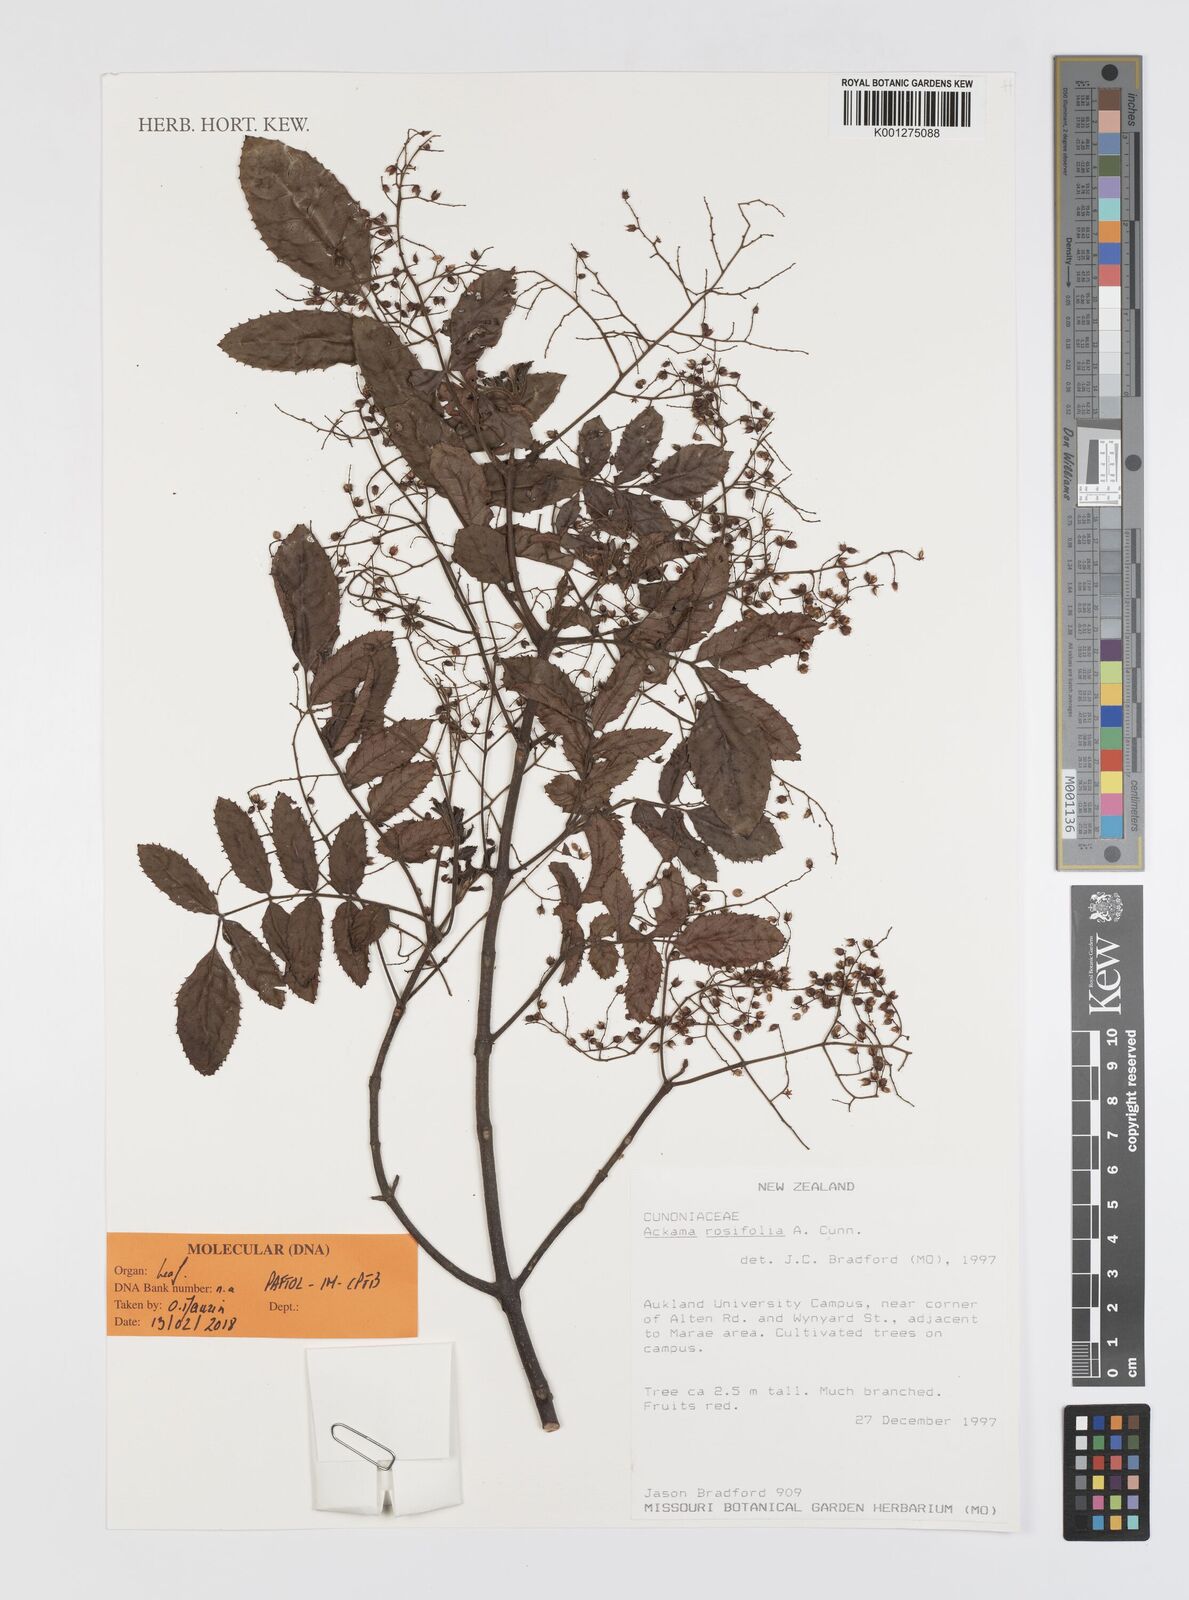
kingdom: Plantae
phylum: Tracheophyta
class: Magnoliopsida
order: Oxalidales
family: Cunoniaceae
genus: Ackama
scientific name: Ackama rosifolia
